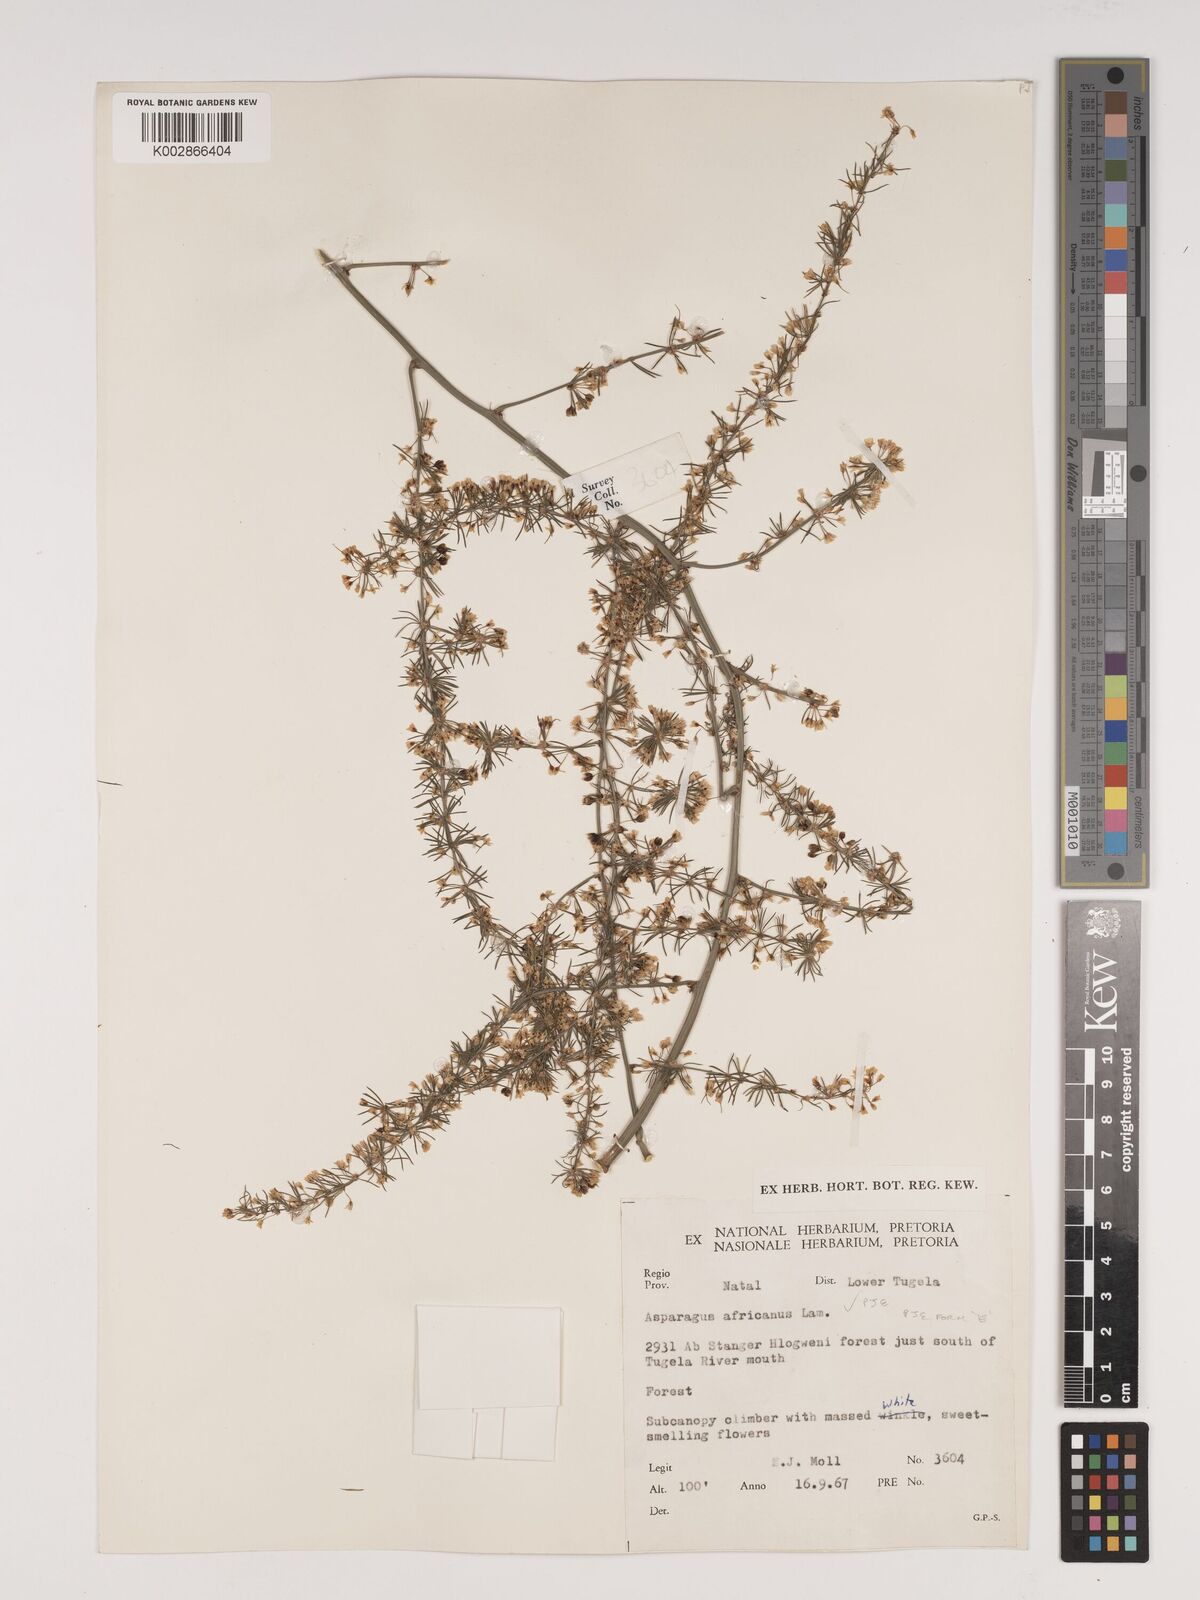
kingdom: Plantae
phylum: Tracheophyta
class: Liliopsida
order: Asparagales
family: Asparagaceae
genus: Asparagus
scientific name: Asparagus africanus
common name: Asparagus-fern
